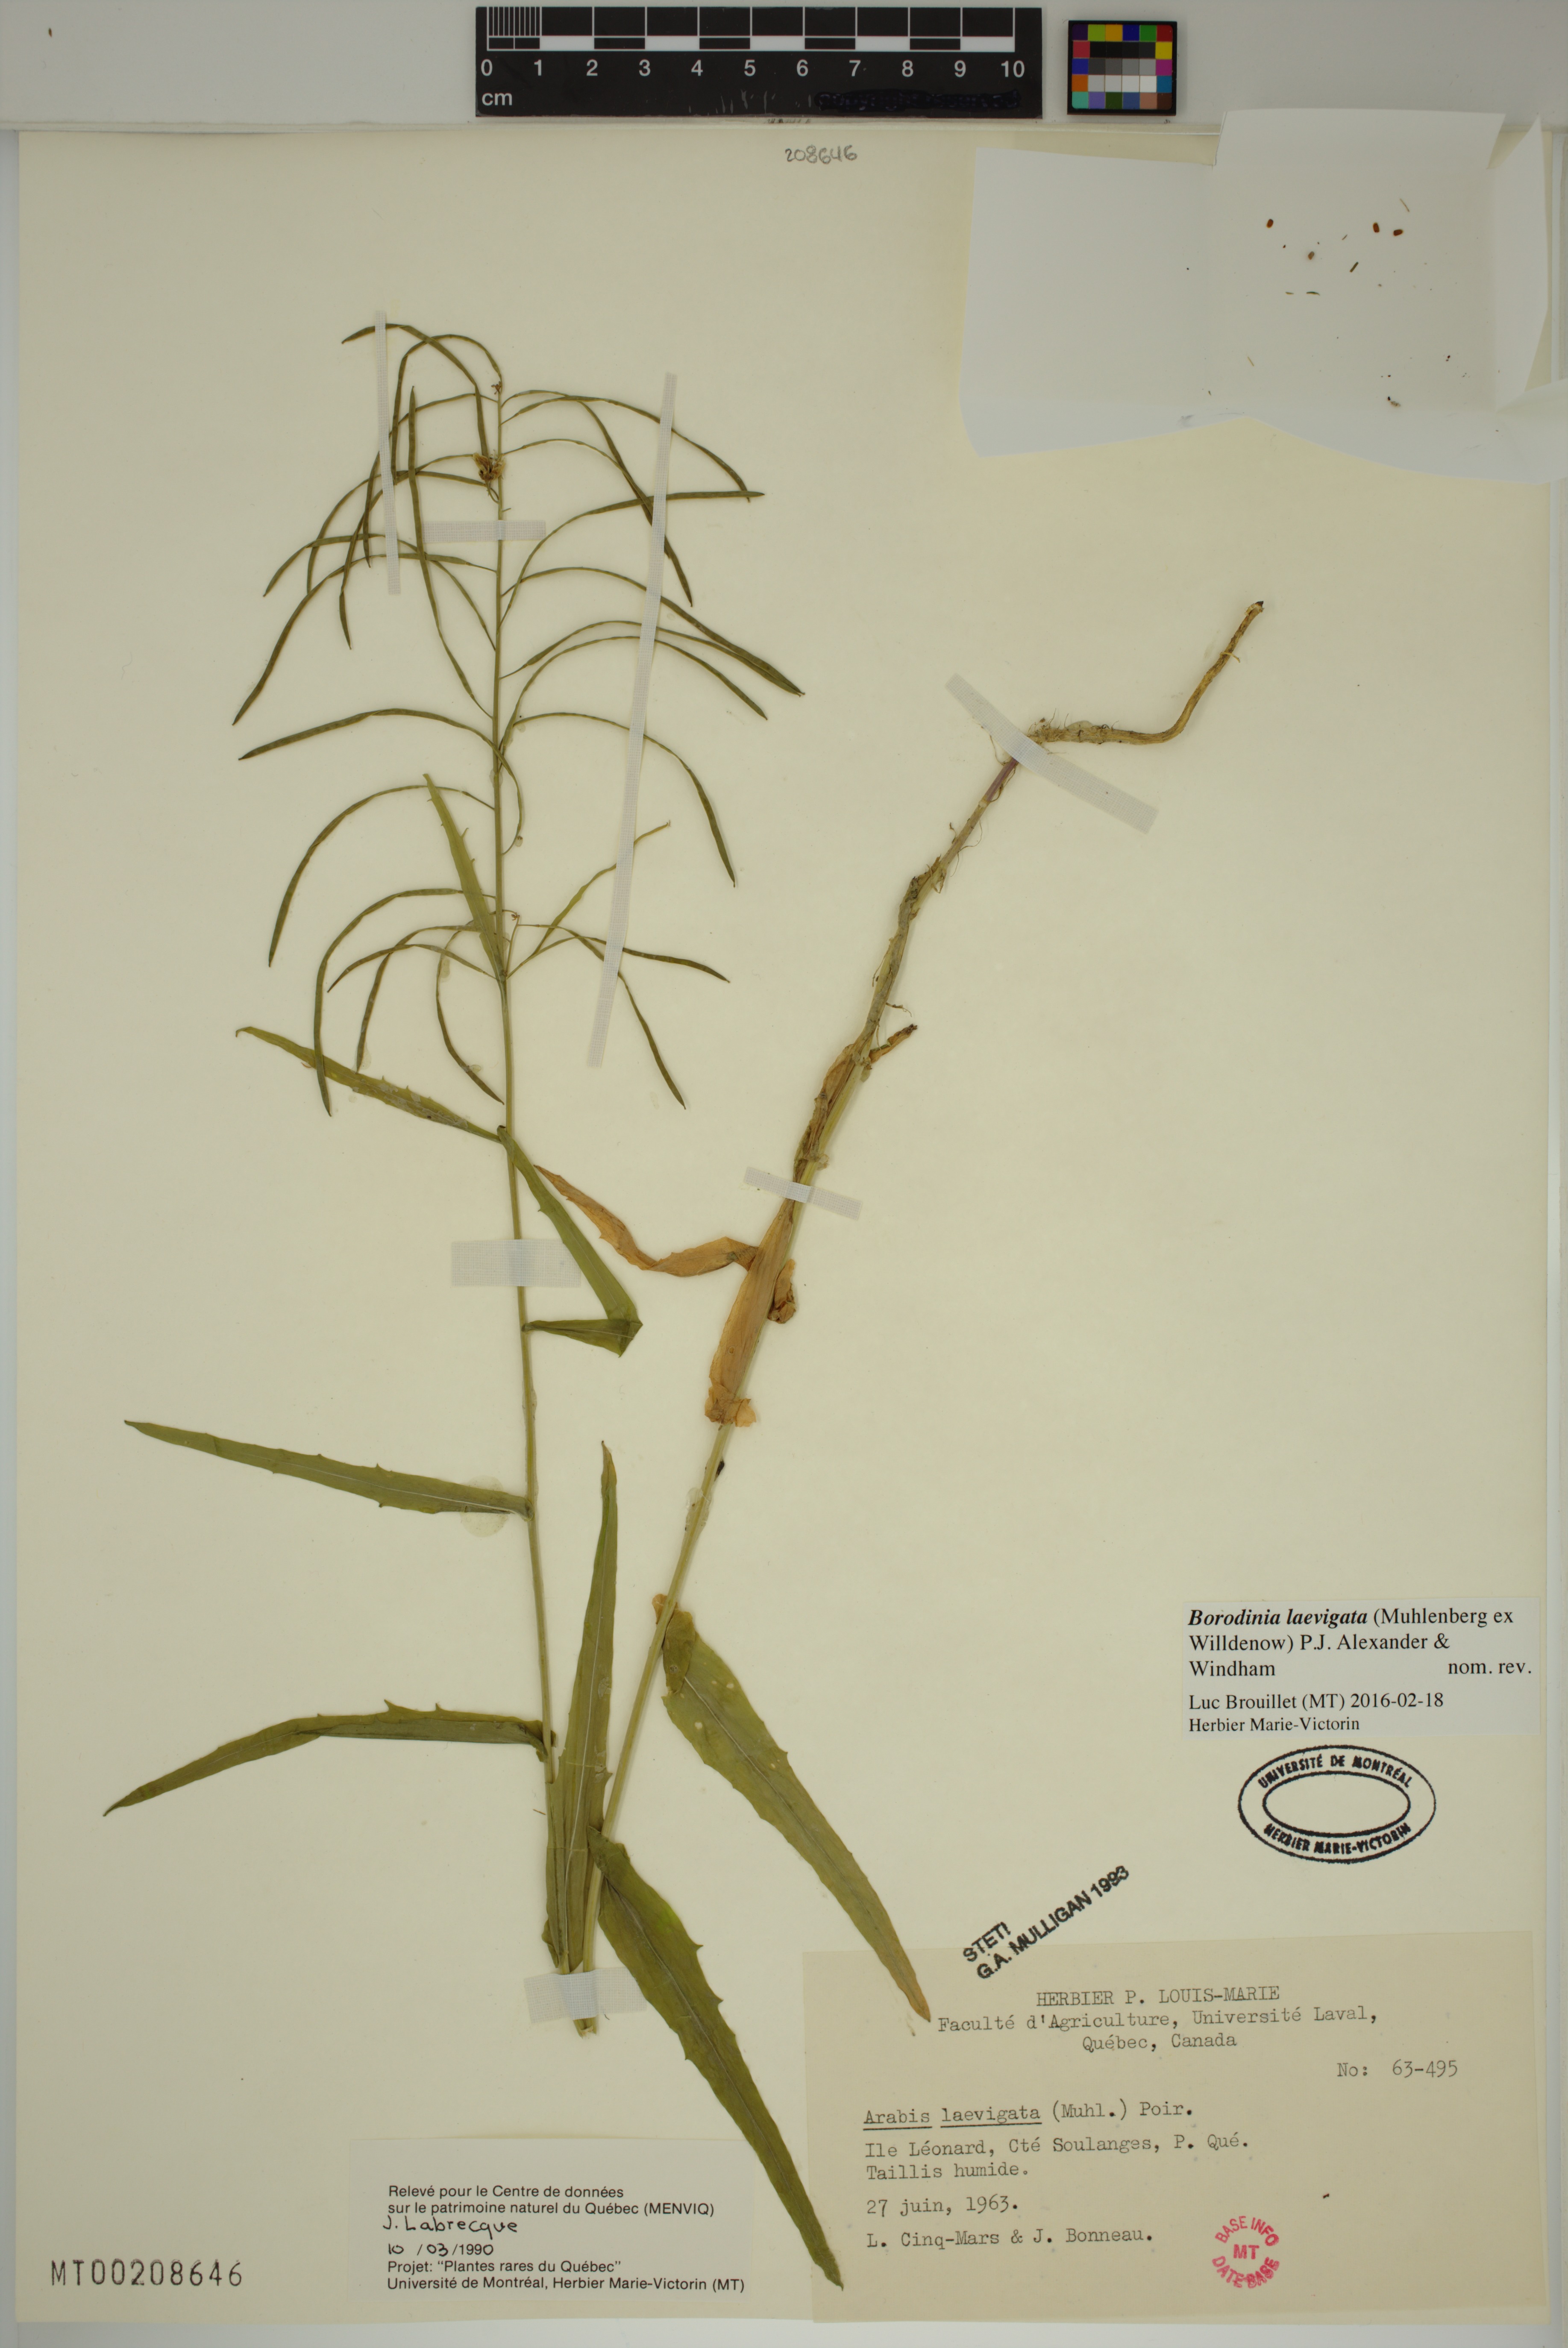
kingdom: Plantae
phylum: Tracheophyta
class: Magnoliopsida
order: Brassicales
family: Brassicaceae
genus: Borodinia
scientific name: Borodinia laevigata
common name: Smooth rockcress
